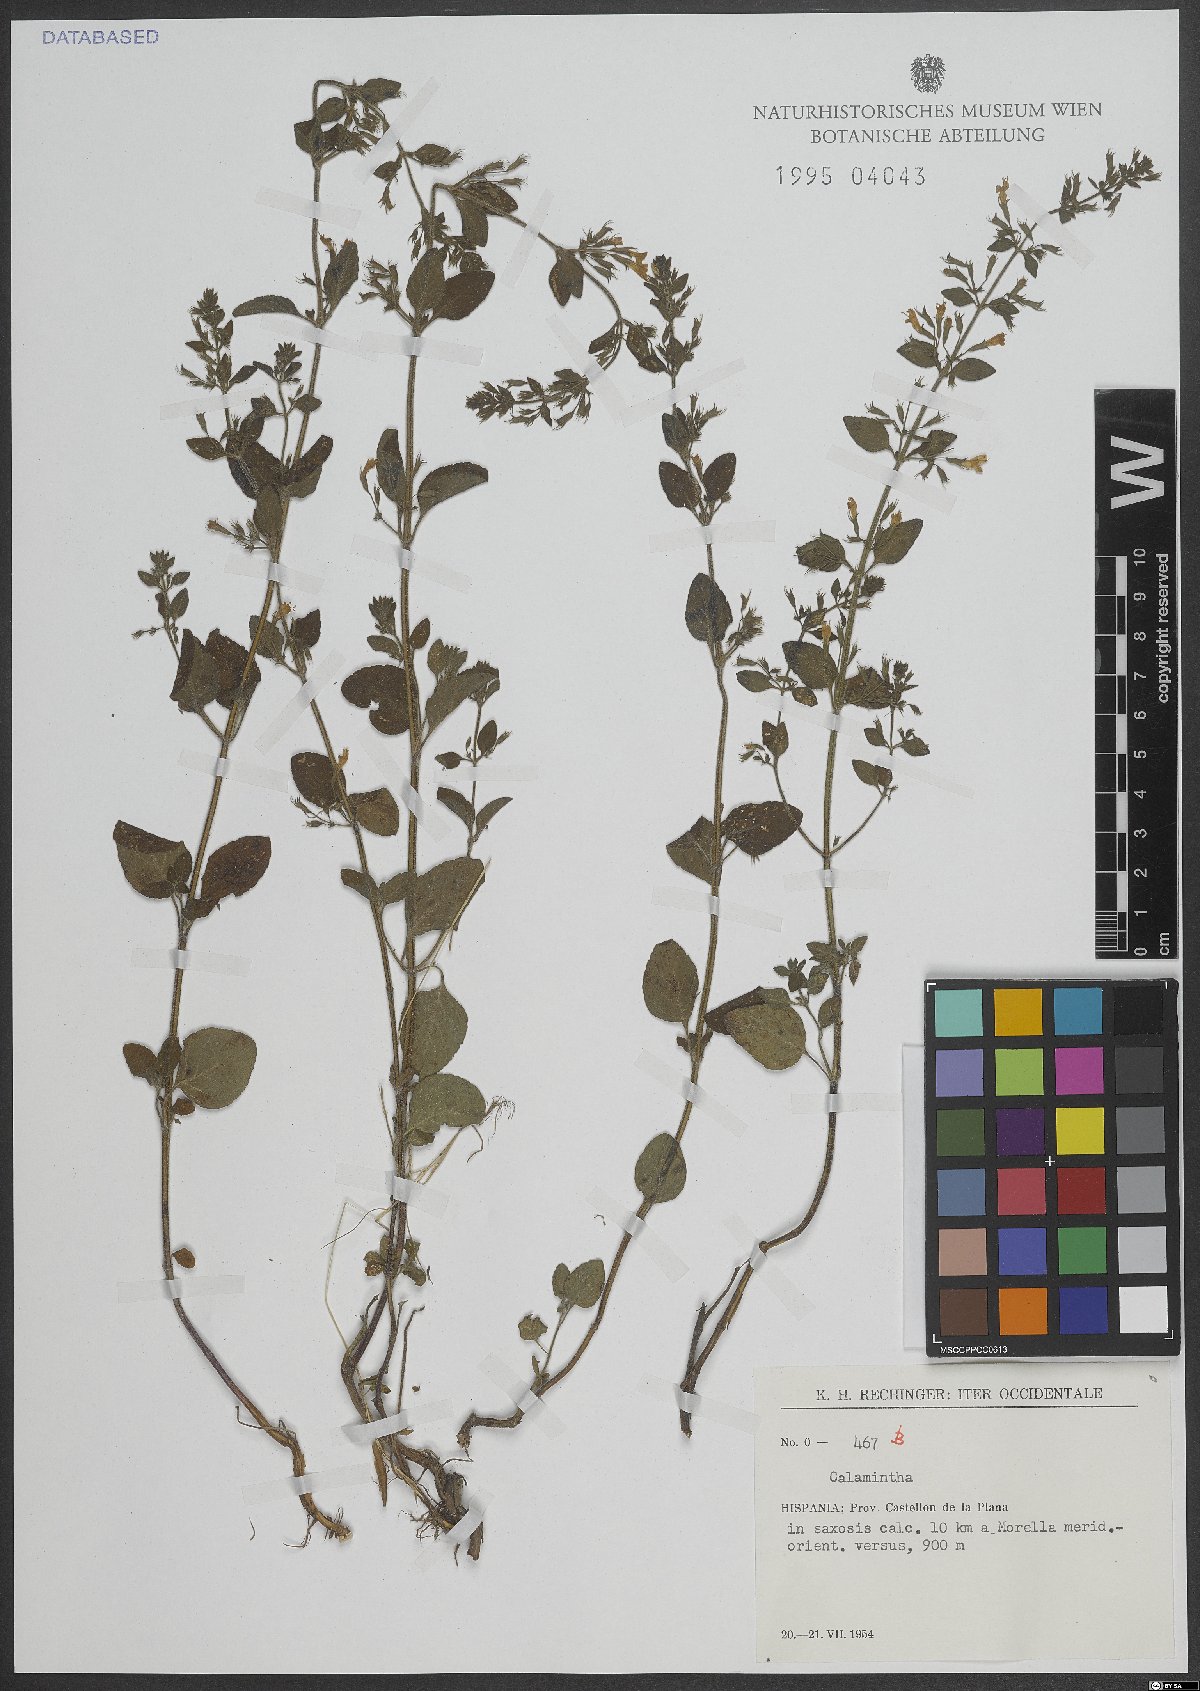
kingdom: Plantae
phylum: Tracheophyta
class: Magnoliopsida
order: Lamiales
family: Lamiaceae
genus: Calamintha
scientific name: Calamintha
